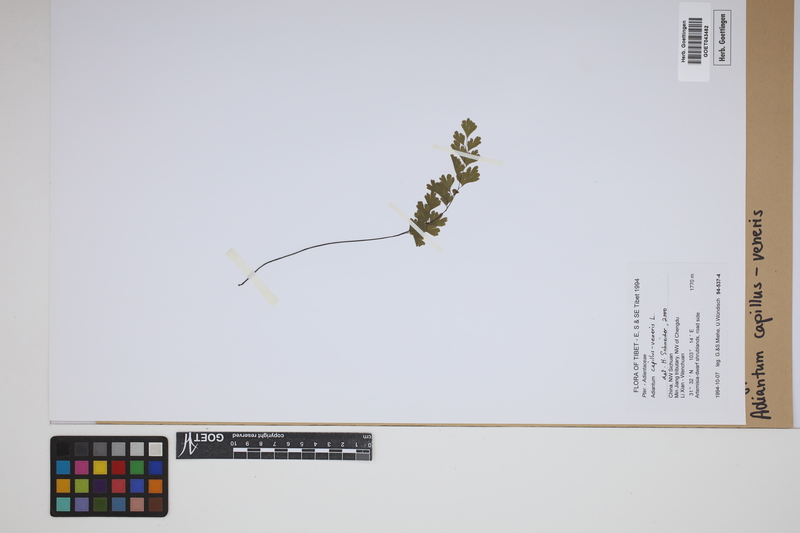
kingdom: Plantae
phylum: Tracheophyta
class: Polypodiopsida
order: Polypodiales
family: Pteridaceae
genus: Adiantum
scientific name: Adiantum capillus-veneris
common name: Maidenhair fern
